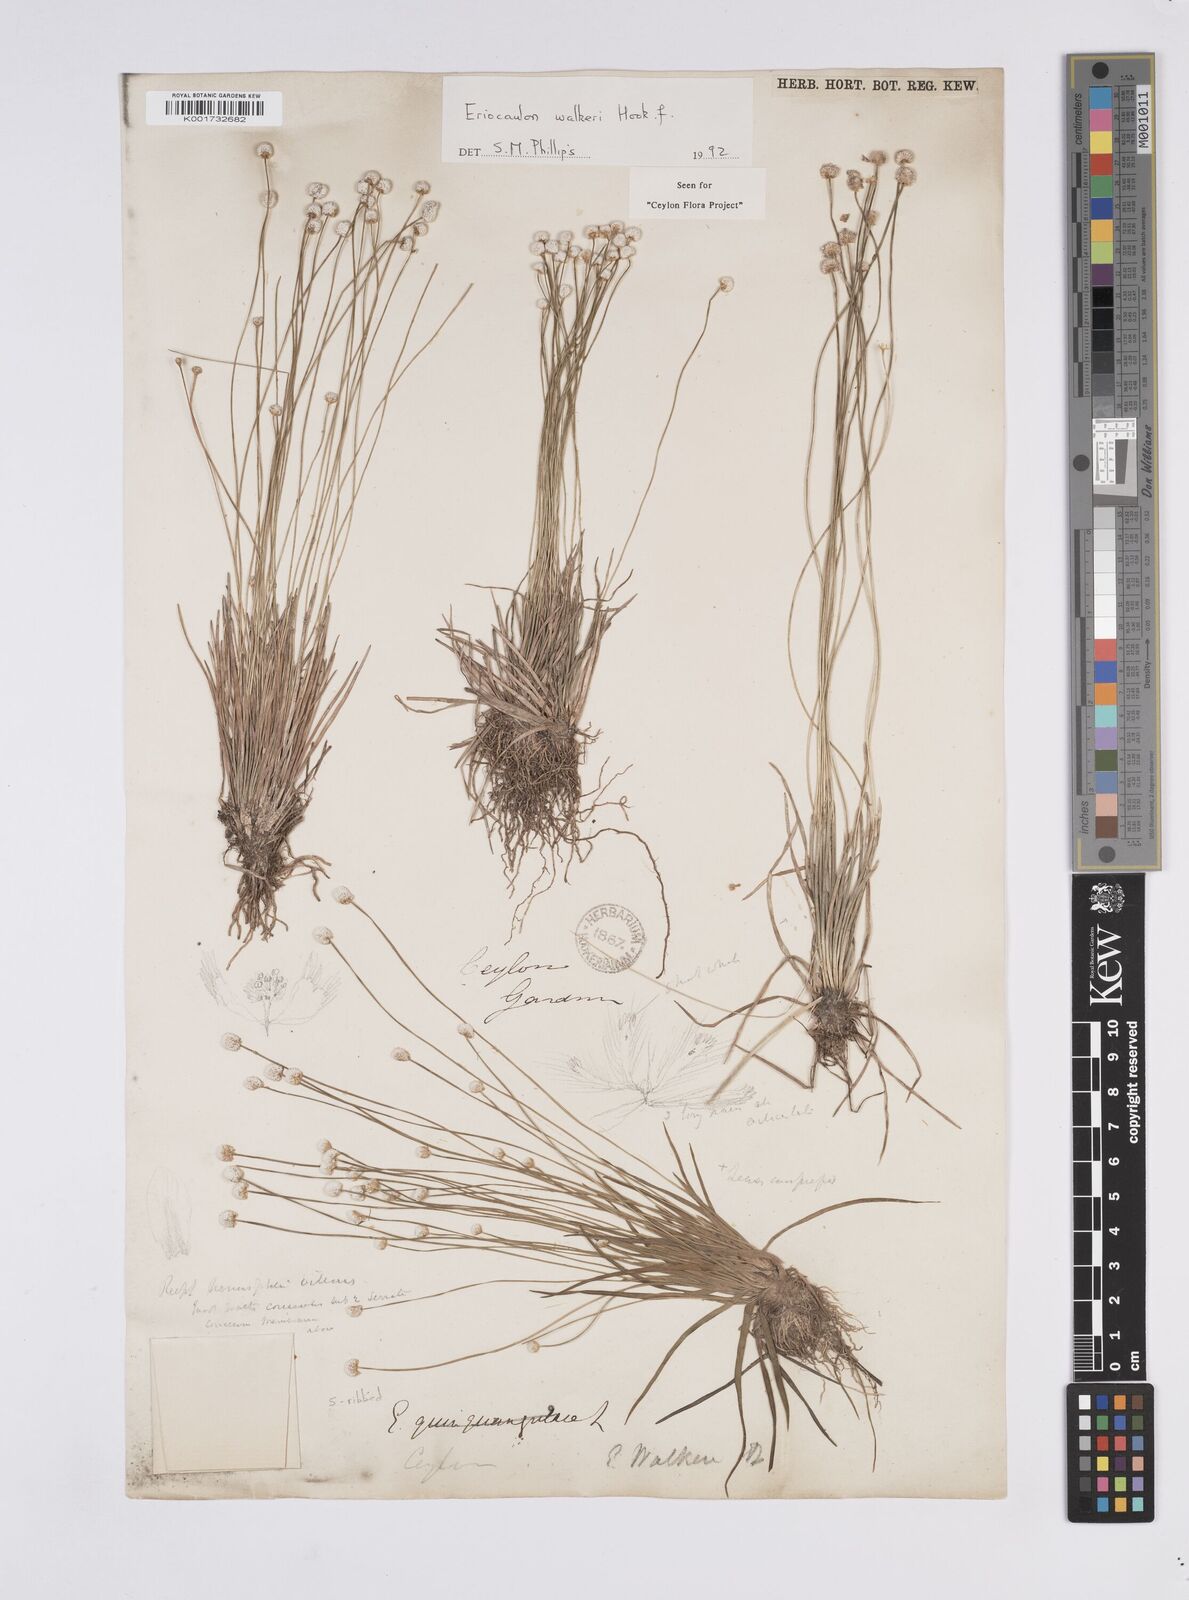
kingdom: Plantae
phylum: Tracheophyta
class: Liliopsida
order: Poales
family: Eriocaulaceae
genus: Eriocaulon
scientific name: Eriocaulon walkeri
